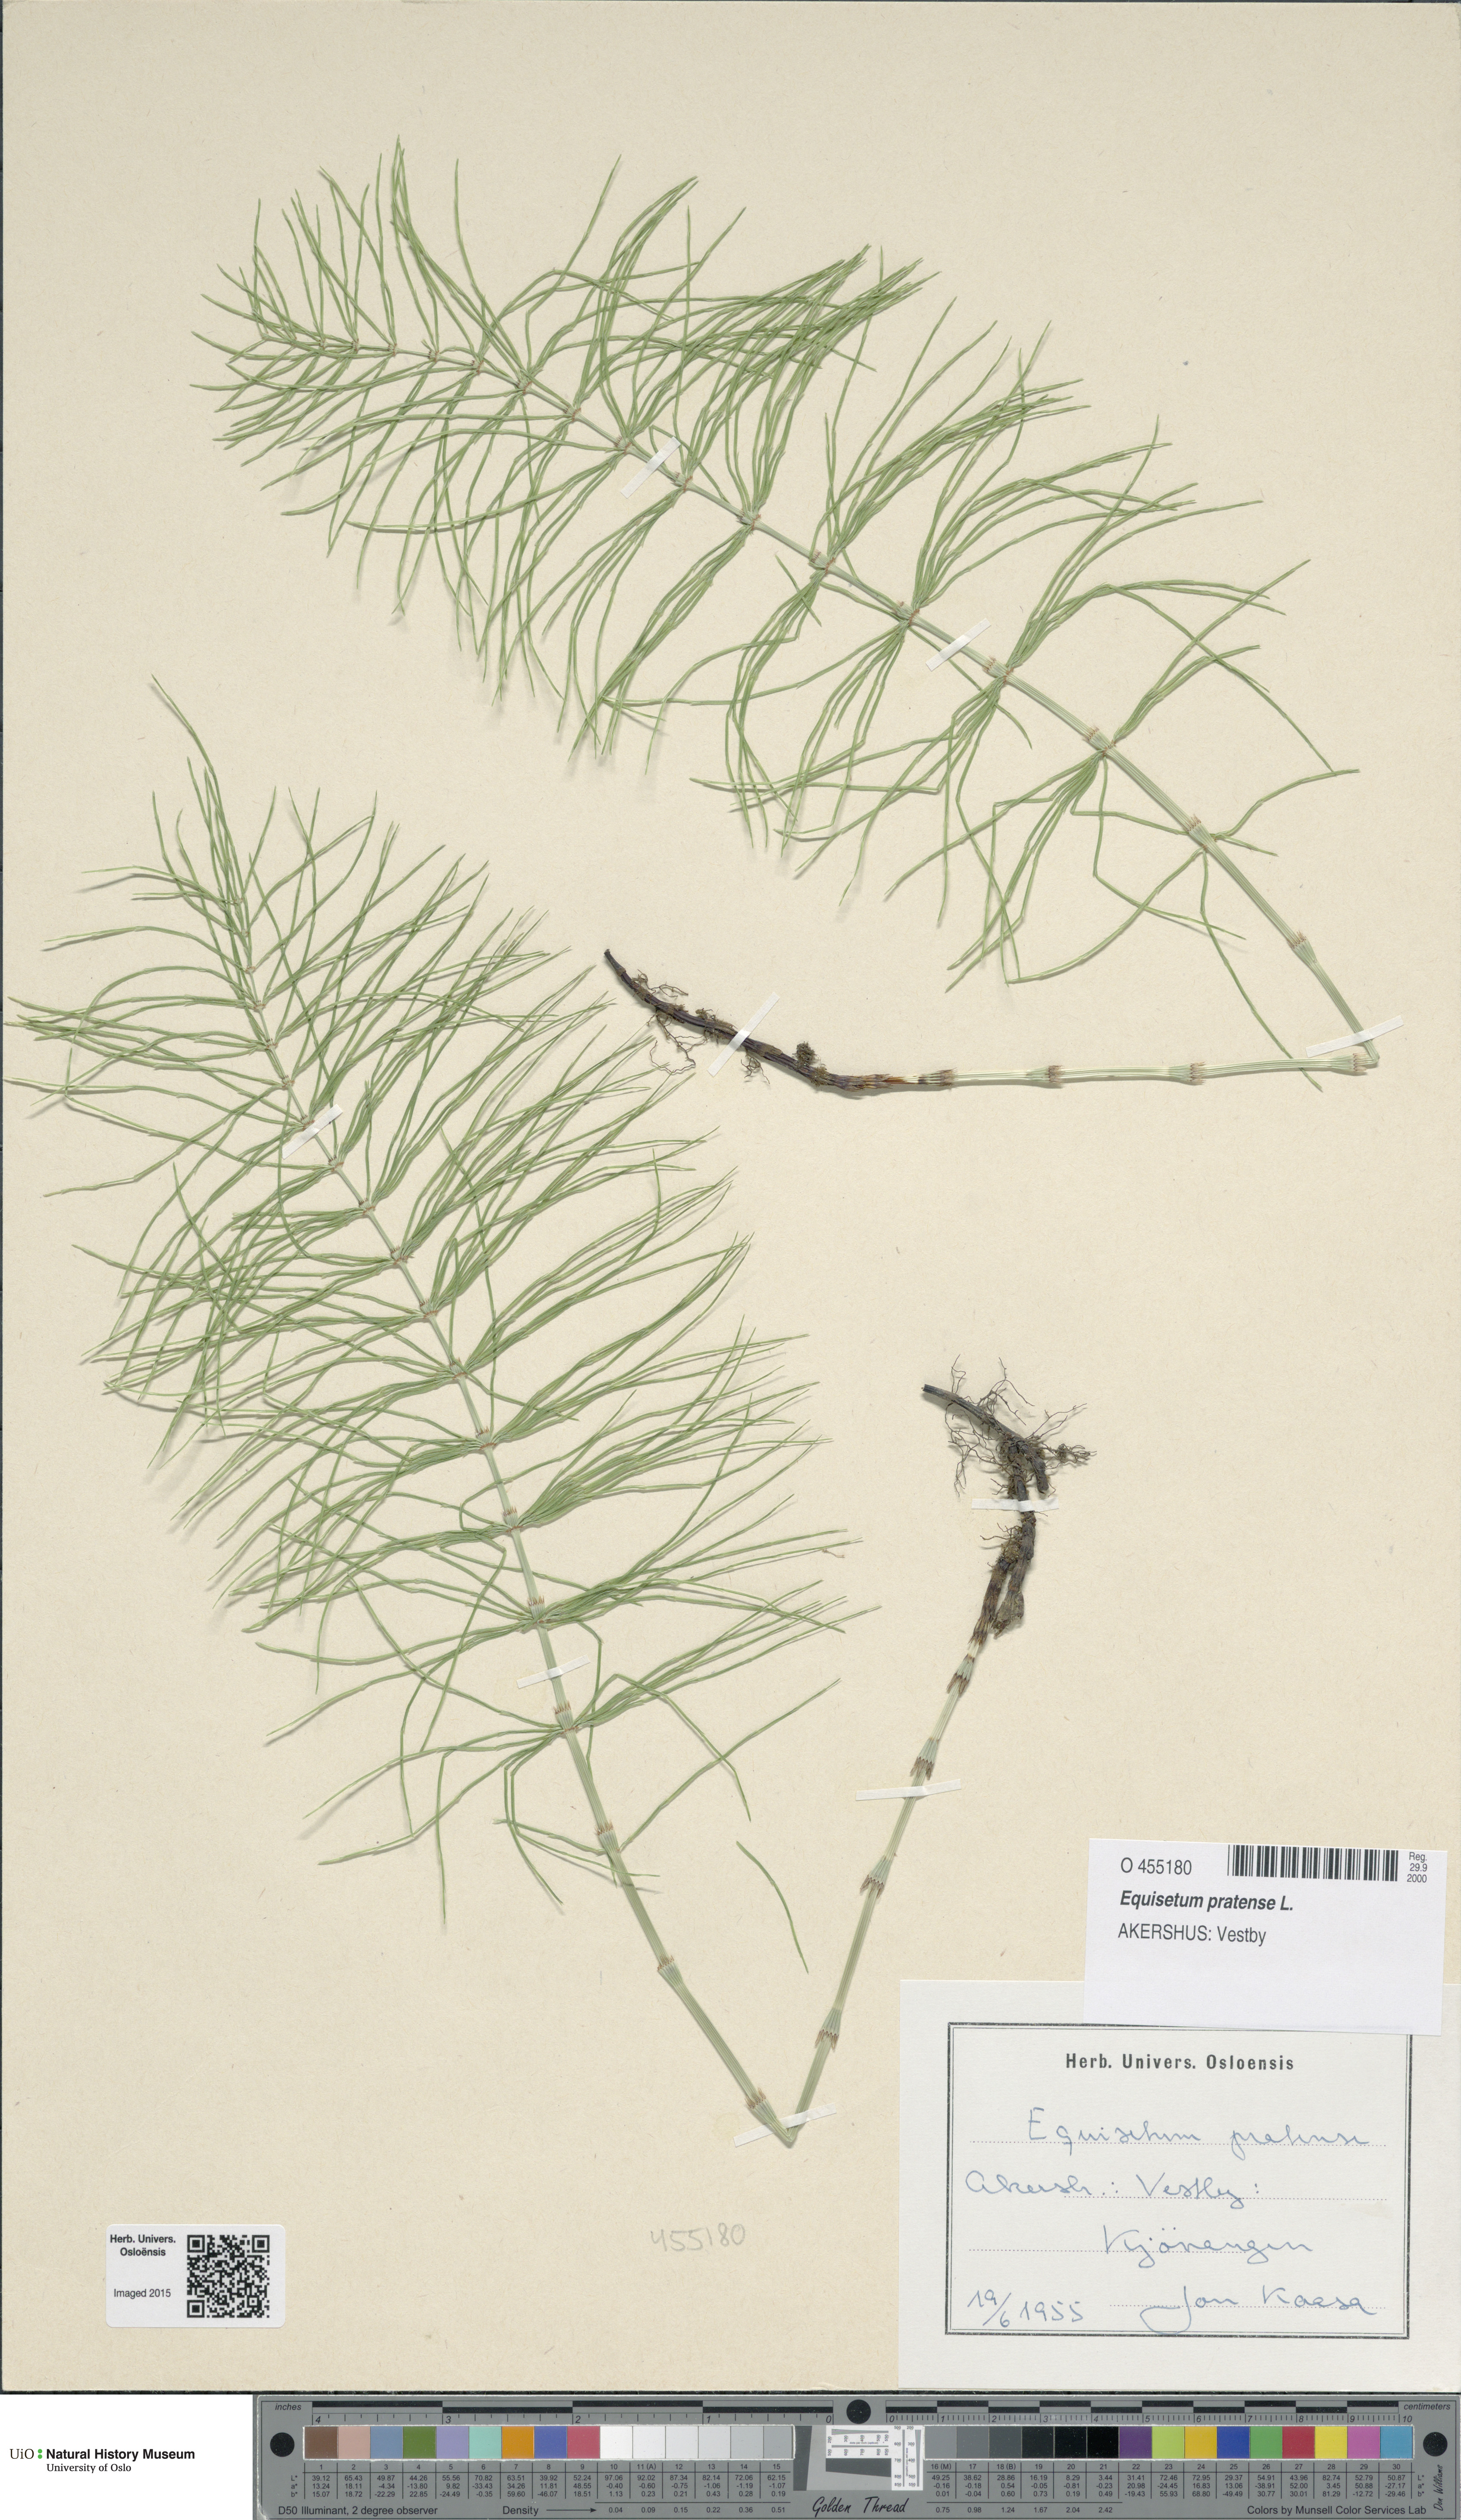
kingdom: Plantae
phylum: Tracheophyta
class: Polypodiopsida
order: Equisetales
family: Equisetaceae
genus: Equisetum
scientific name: Equisetum pratense
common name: Meadow horsetail
